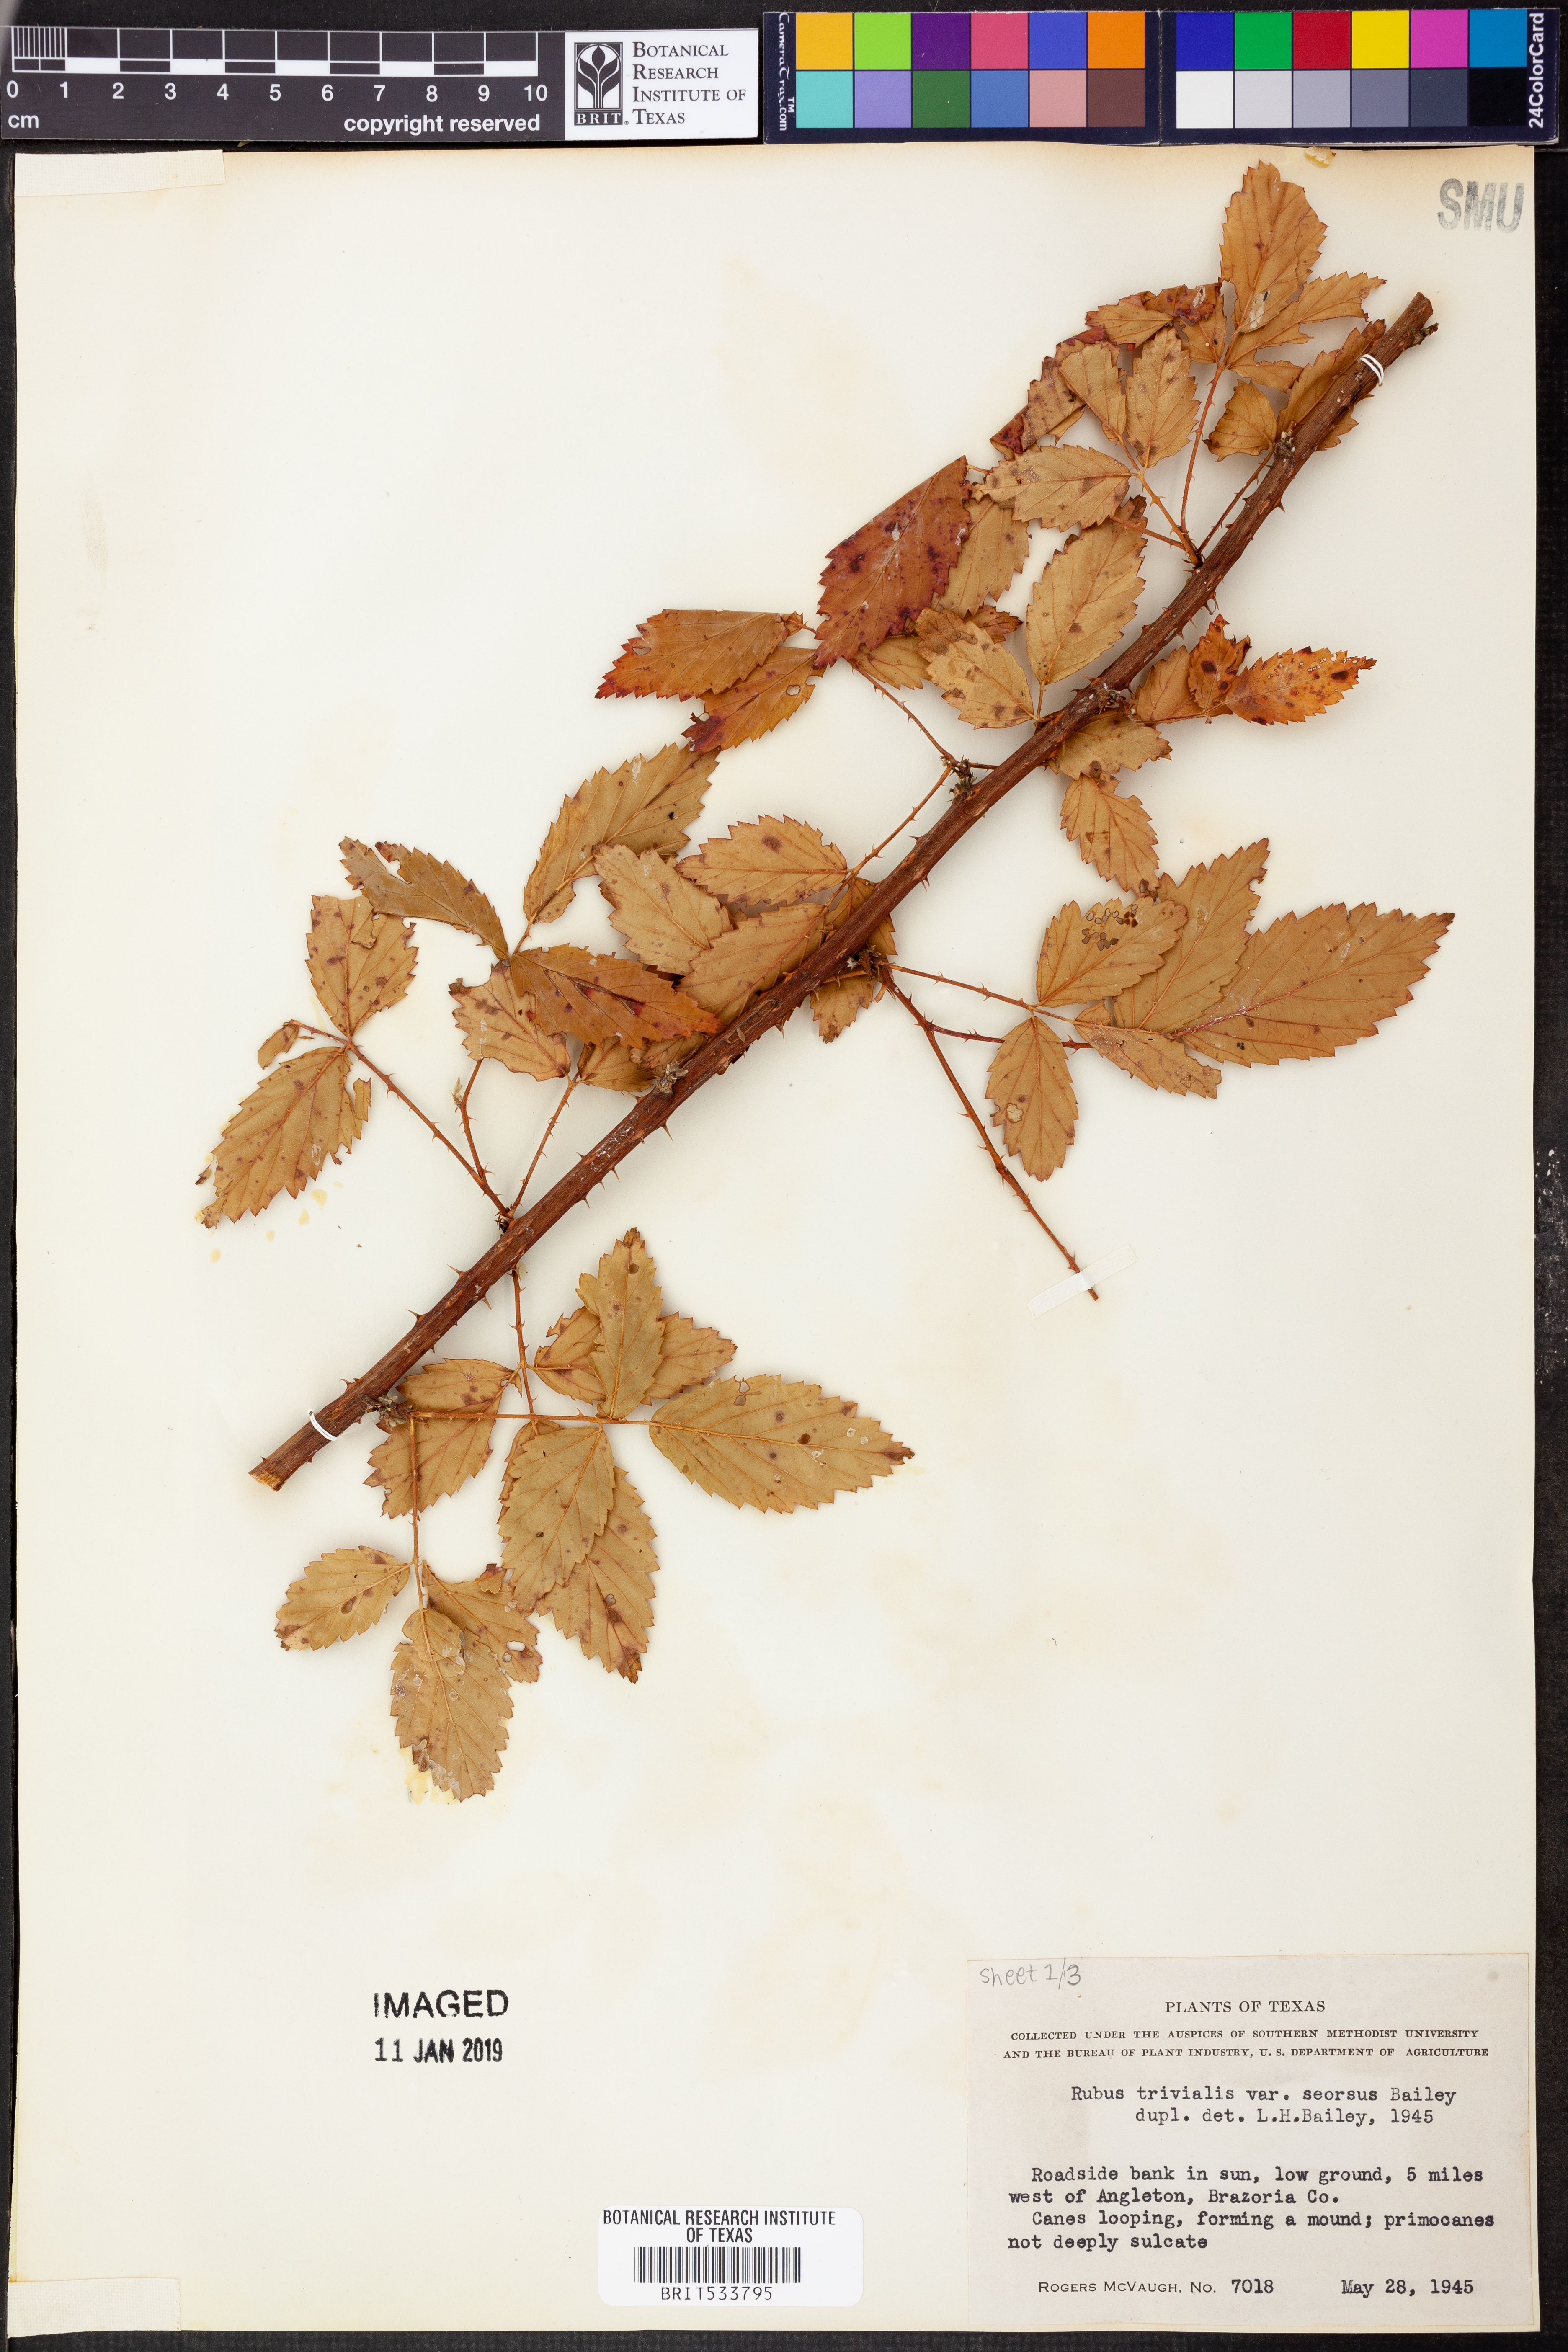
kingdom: Plantae
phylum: Tracheophyta
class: Magnoliopsida
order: Rosales
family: Rosaceae
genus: Rubus
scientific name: Rubus trivialis
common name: Southern dewberry
